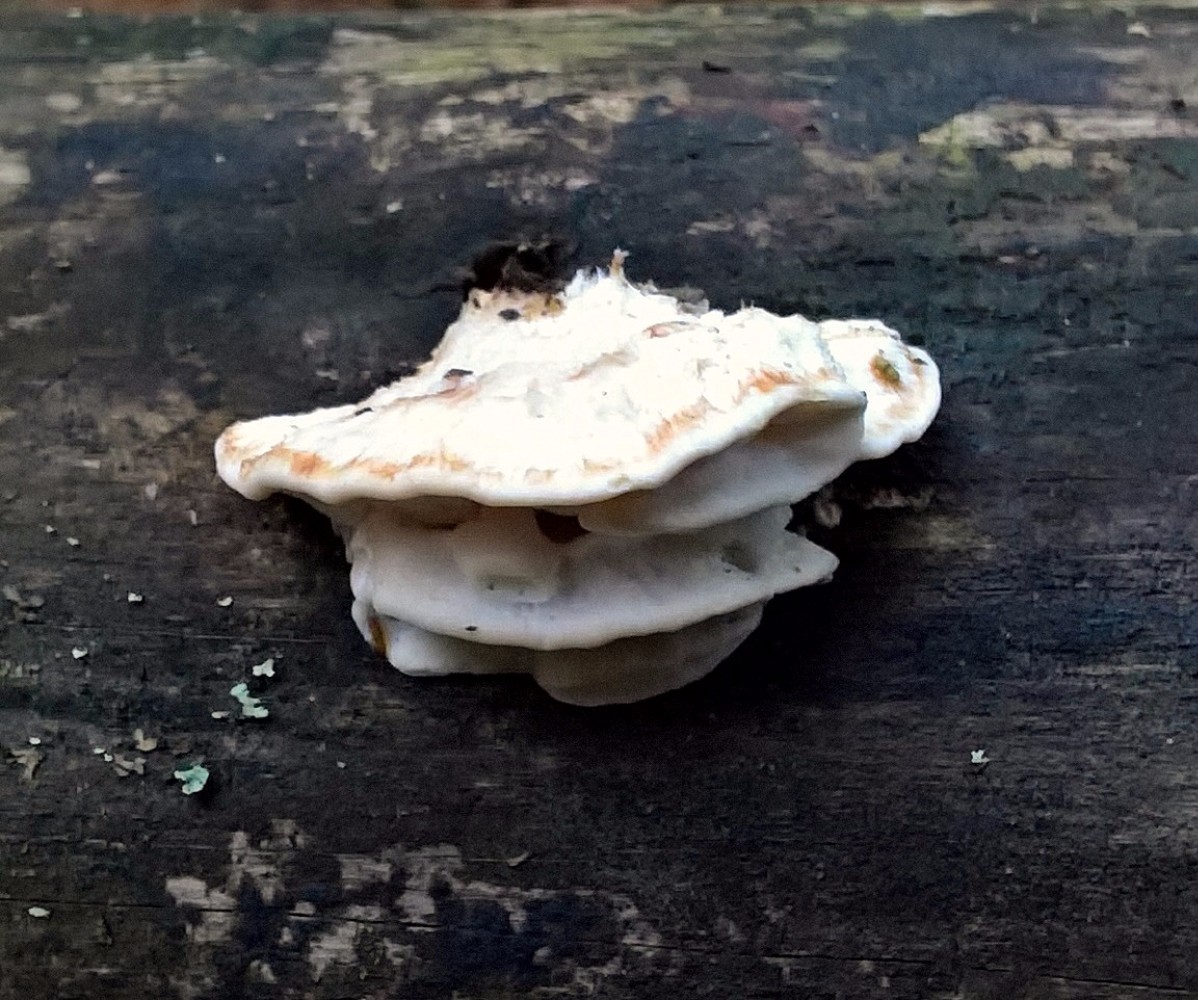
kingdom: Fungi
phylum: Basidiomycota
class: Agaricomycetes
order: Polyporales
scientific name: Polyporales
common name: poresvampordenen
